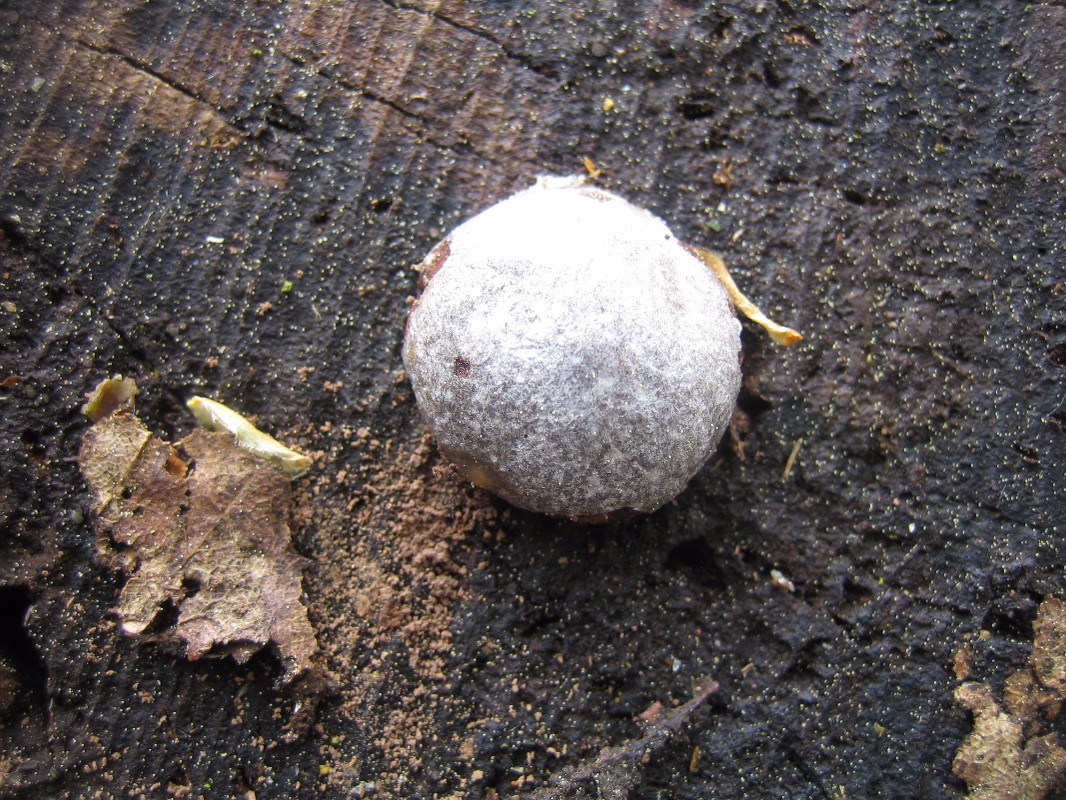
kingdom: Protozoa
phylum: Mycetozoa
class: Myxomycetes
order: Cribrariales
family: Tubiferaceae
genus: Reticularia
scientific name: Reticularia lycoperdon
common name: skinnende støvpude
